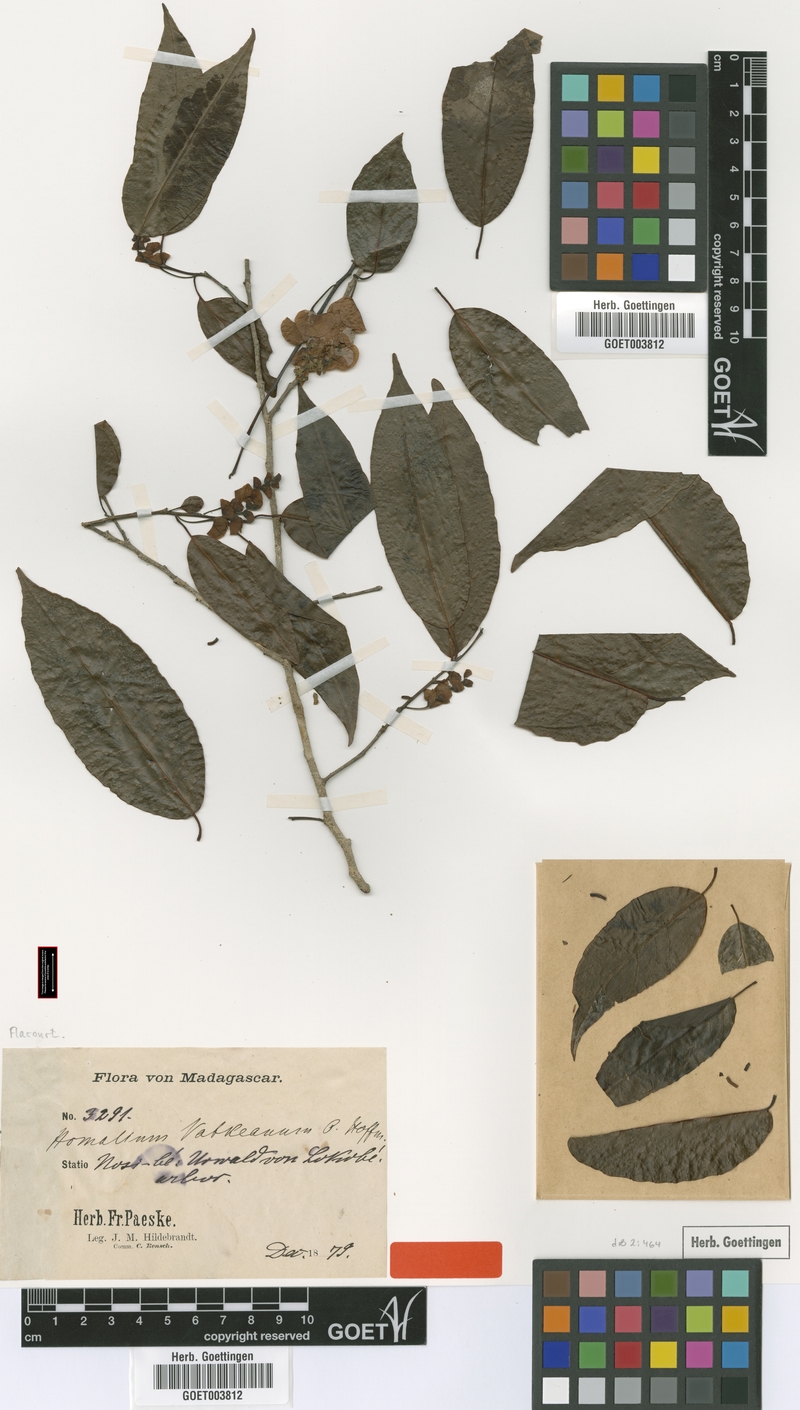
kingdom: Plantae
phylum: Tracheophyta
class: Magnoliopsida
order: Malpighiales
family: Salicaceae
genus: Homalium
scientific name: Homalium involucratum
